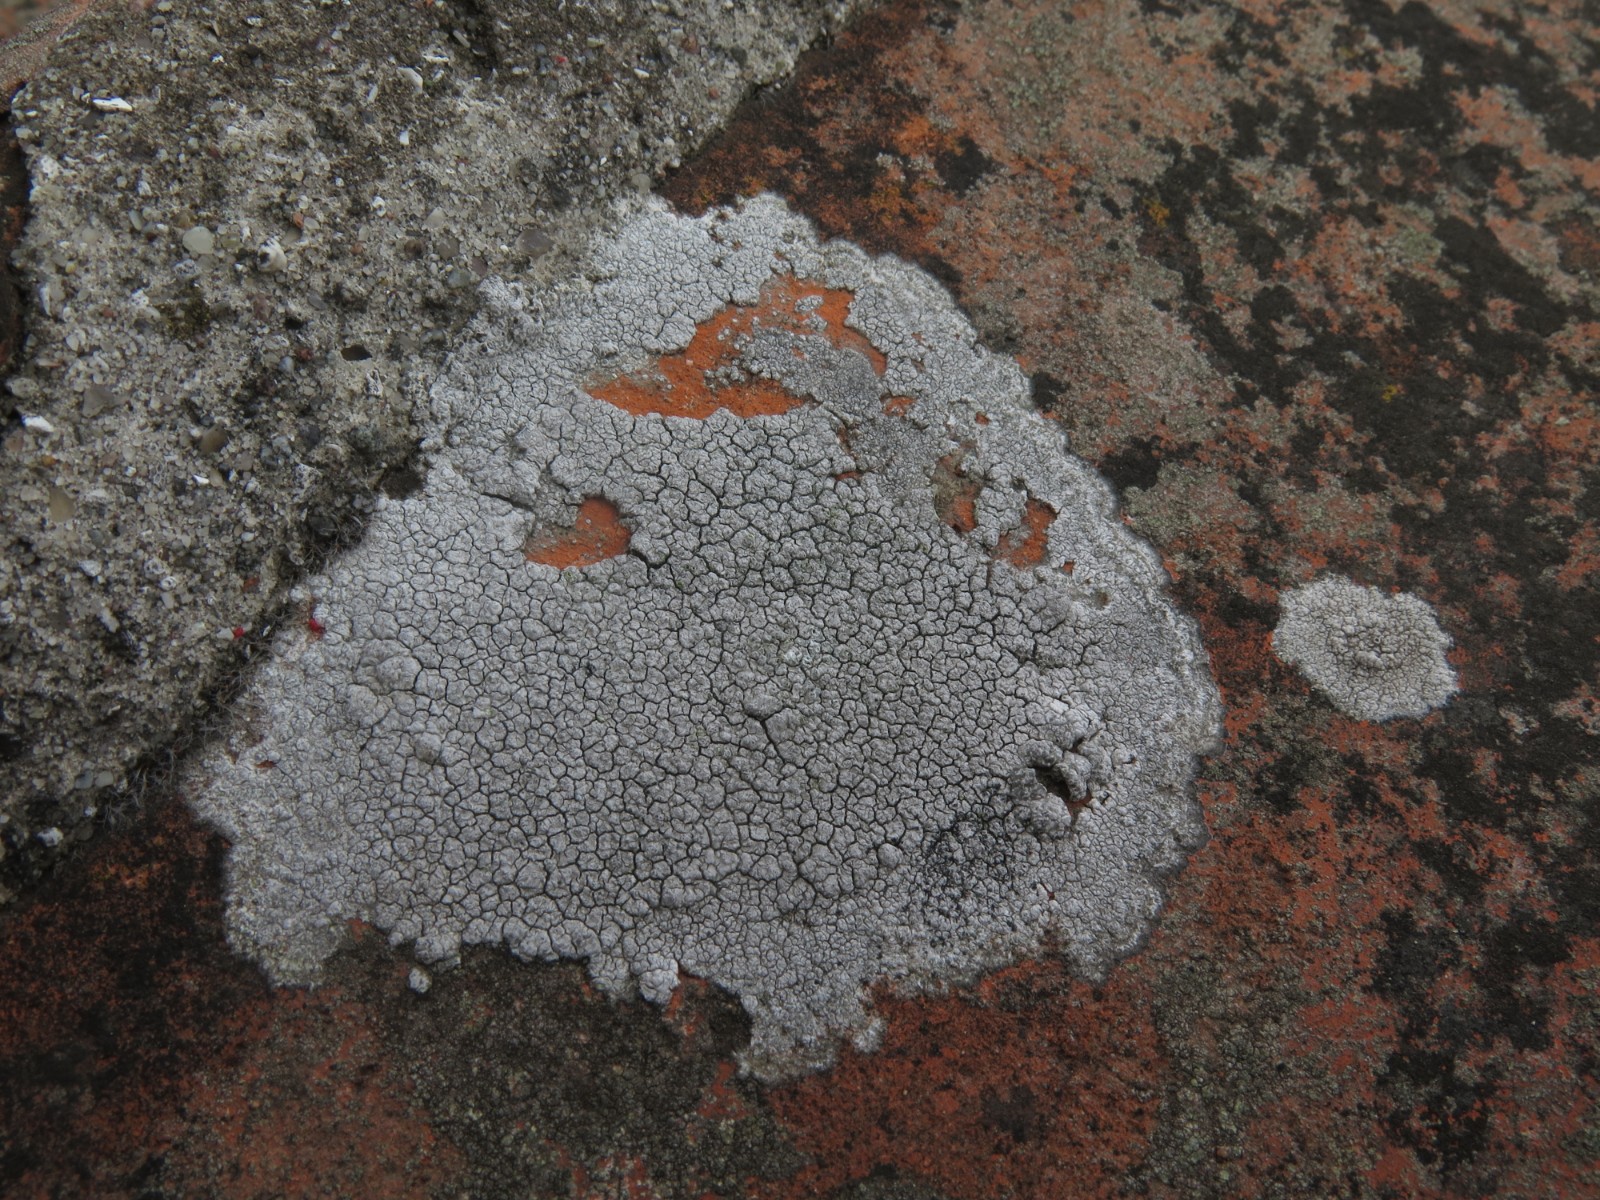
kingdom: Fungi
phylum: Ascomycota
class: Lecanoromycetes
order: Lecanorales
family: Lecanoraceae
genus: Glaucomaria
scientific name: Glaucomaria rupicola
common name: stengærde-kantskivelav
